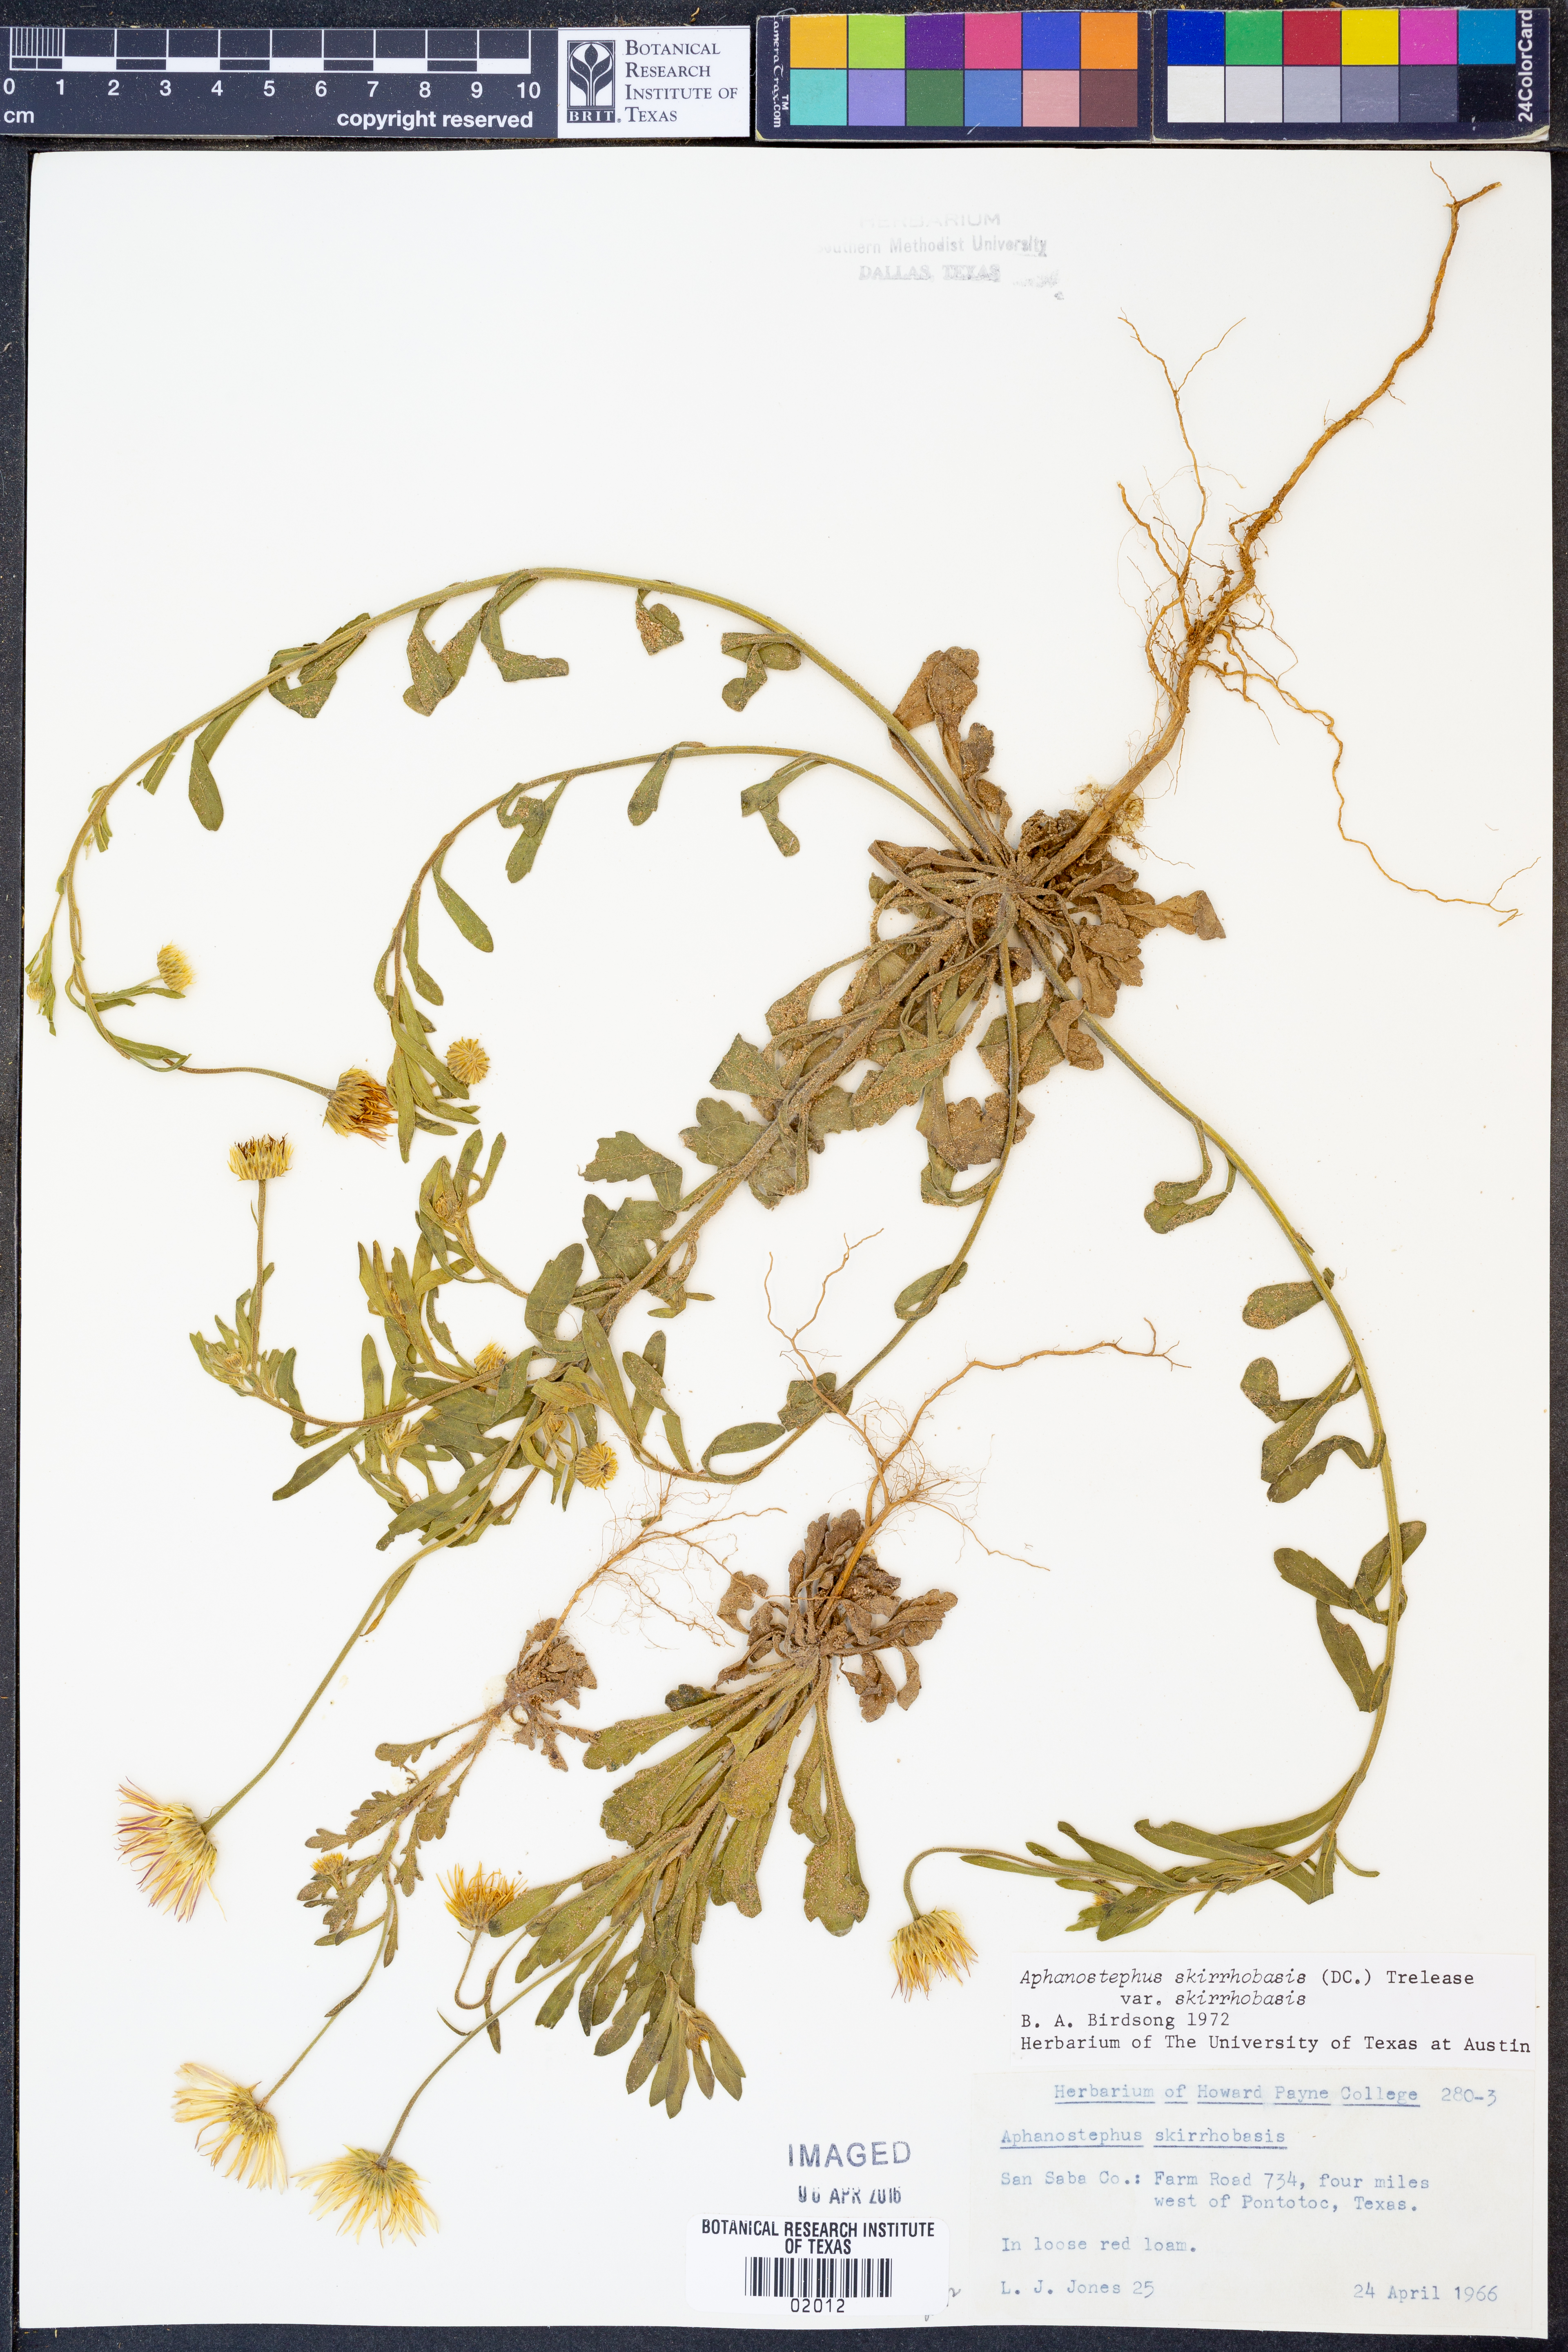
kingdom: Plantae
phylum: Tracheophyta
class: Magnoliopsida
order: Asterales
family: Asteraceae
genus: Aphanostephus
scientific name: Aphanostephus skirrhobasis
